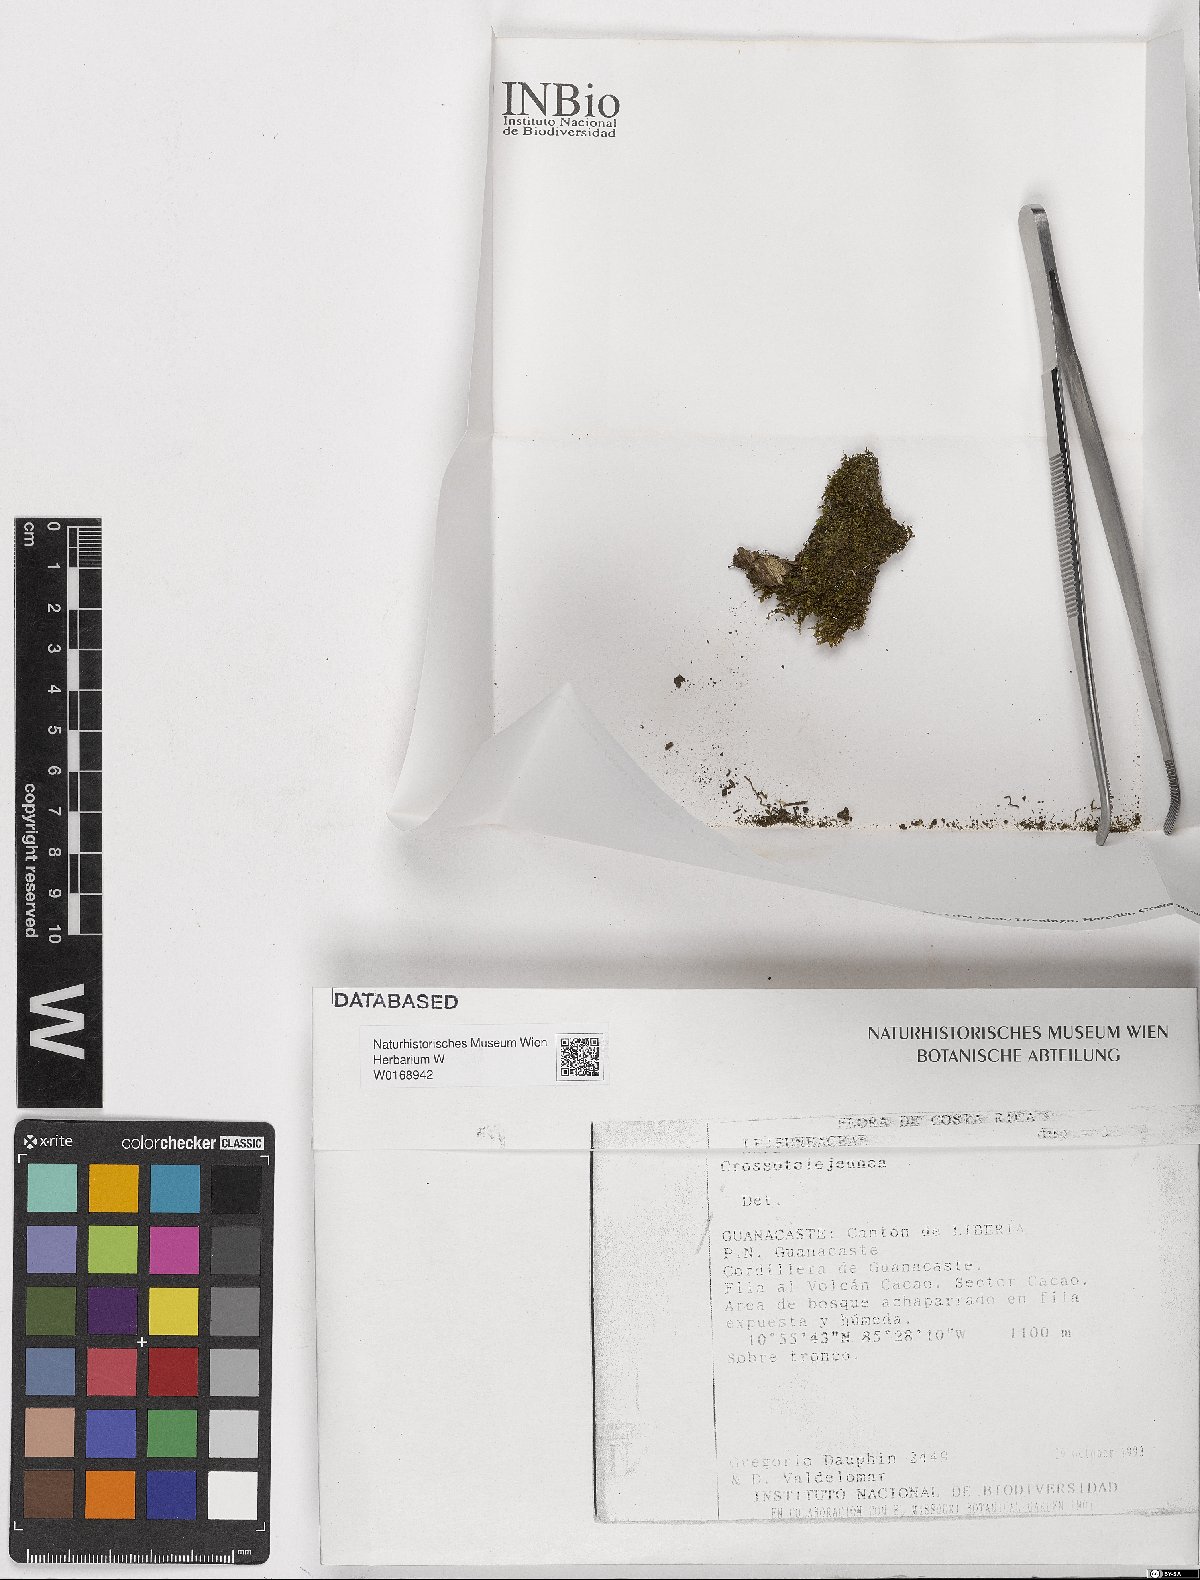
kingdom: Plantae
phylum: Marchantiophyta
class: Jungermanniopsida
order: Porellales
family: Lejeuneaceae
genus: Crossotolejeunea
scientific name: Crossotolejeunea
